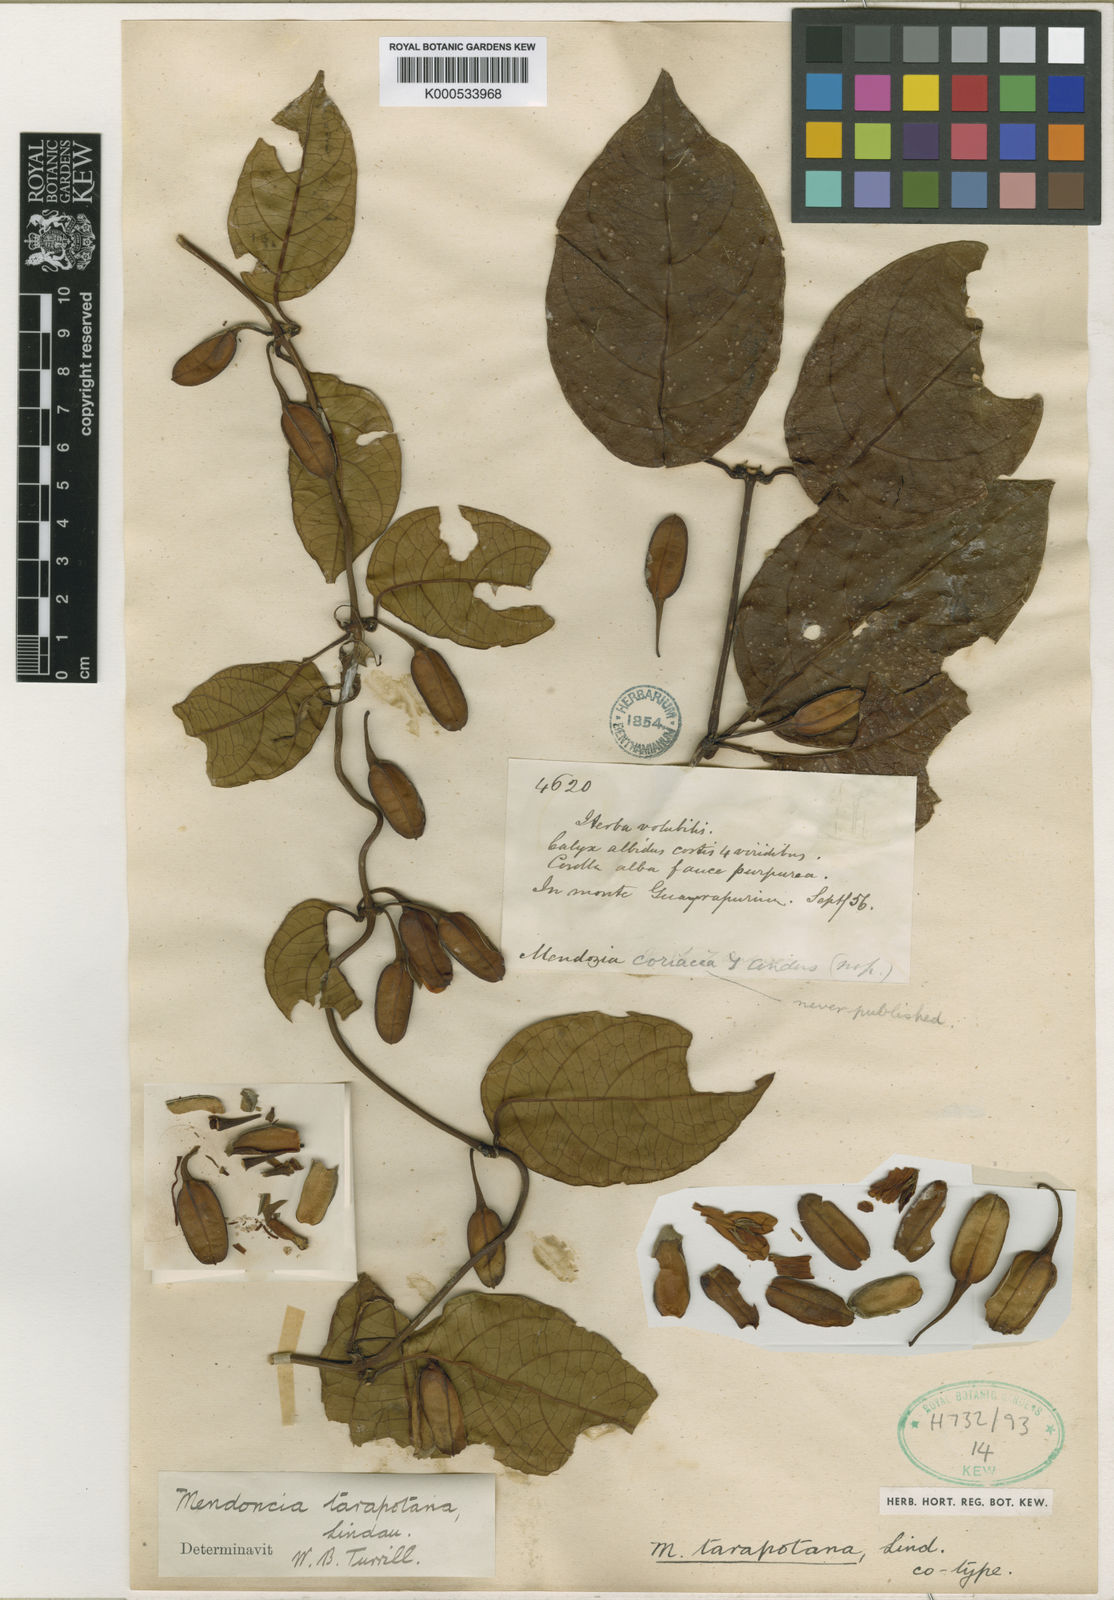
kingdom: Plantae
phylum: Tracheophyta
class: Magnoliopsida
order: Lamiales
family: Acanthaceae
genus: Mendoncia
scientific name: Mendoncia tarapotana
